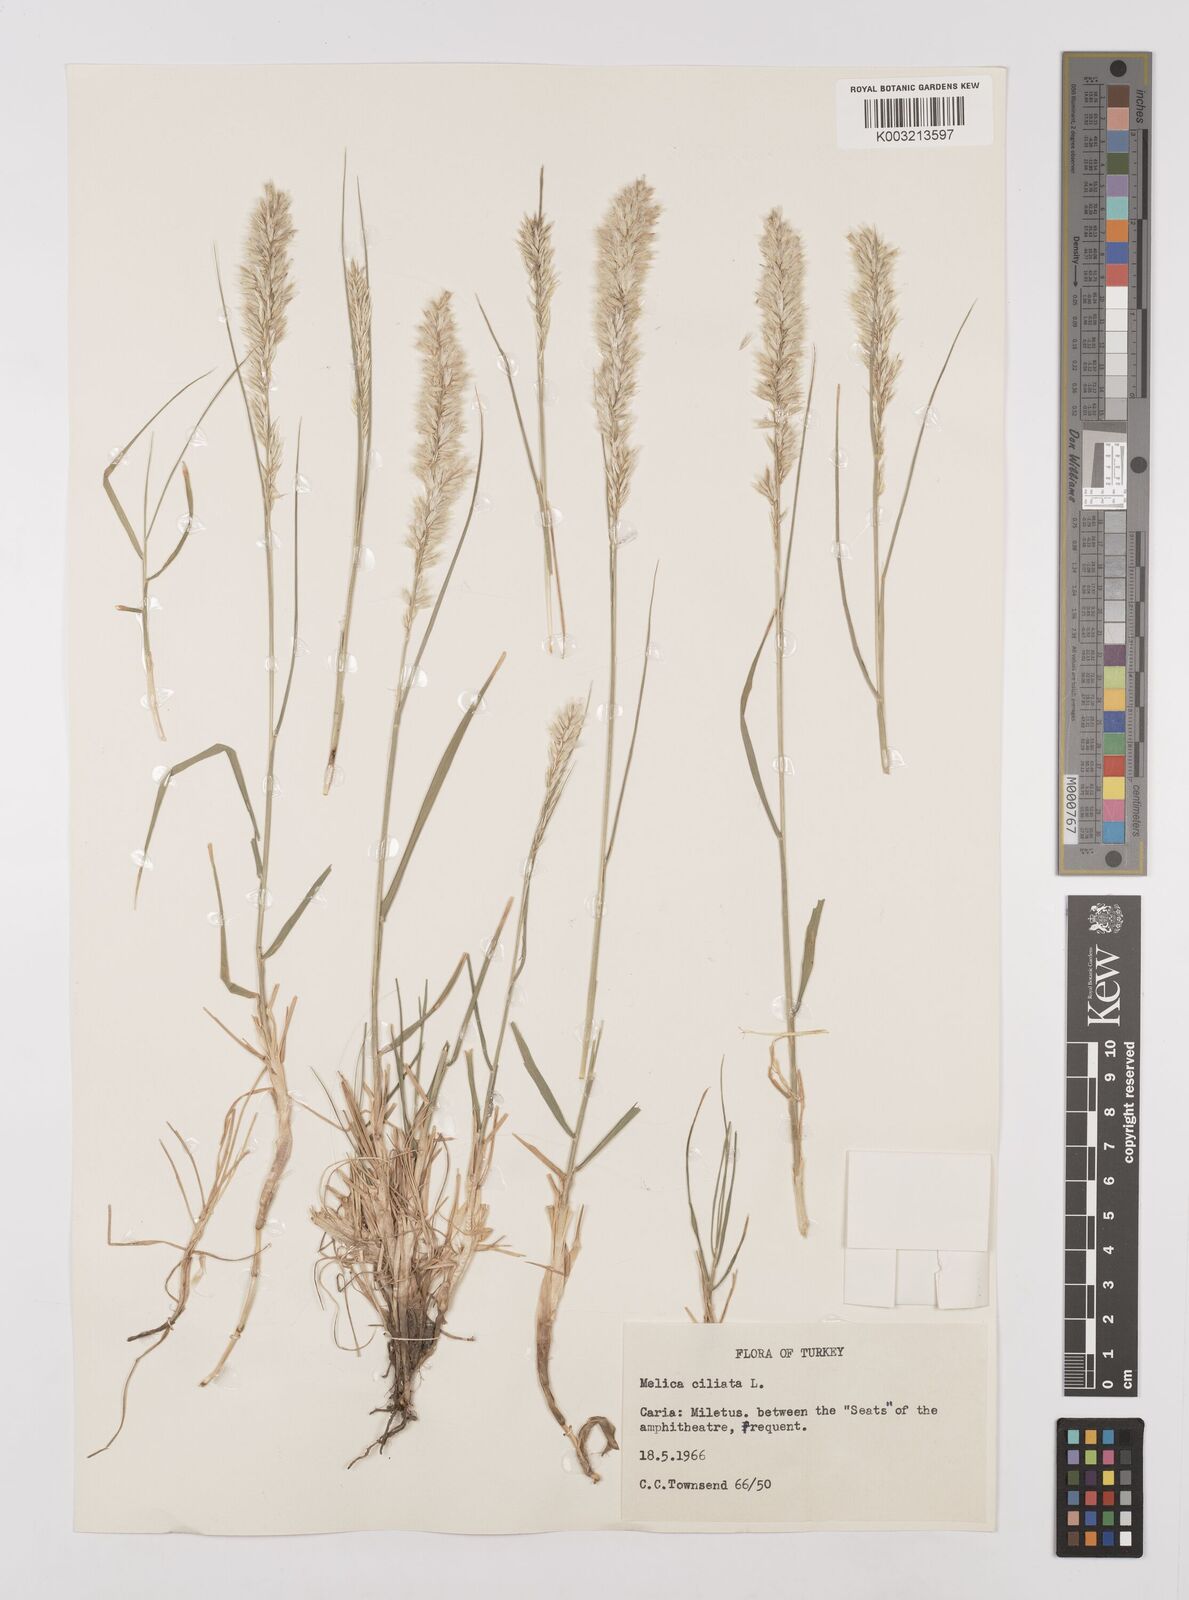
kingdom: Plantae
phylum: Tracheophyta
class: Liliopsida
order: Poales
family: Poaceae
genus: Melica
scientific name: Melica ciliata
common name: Hairy melicgrass
